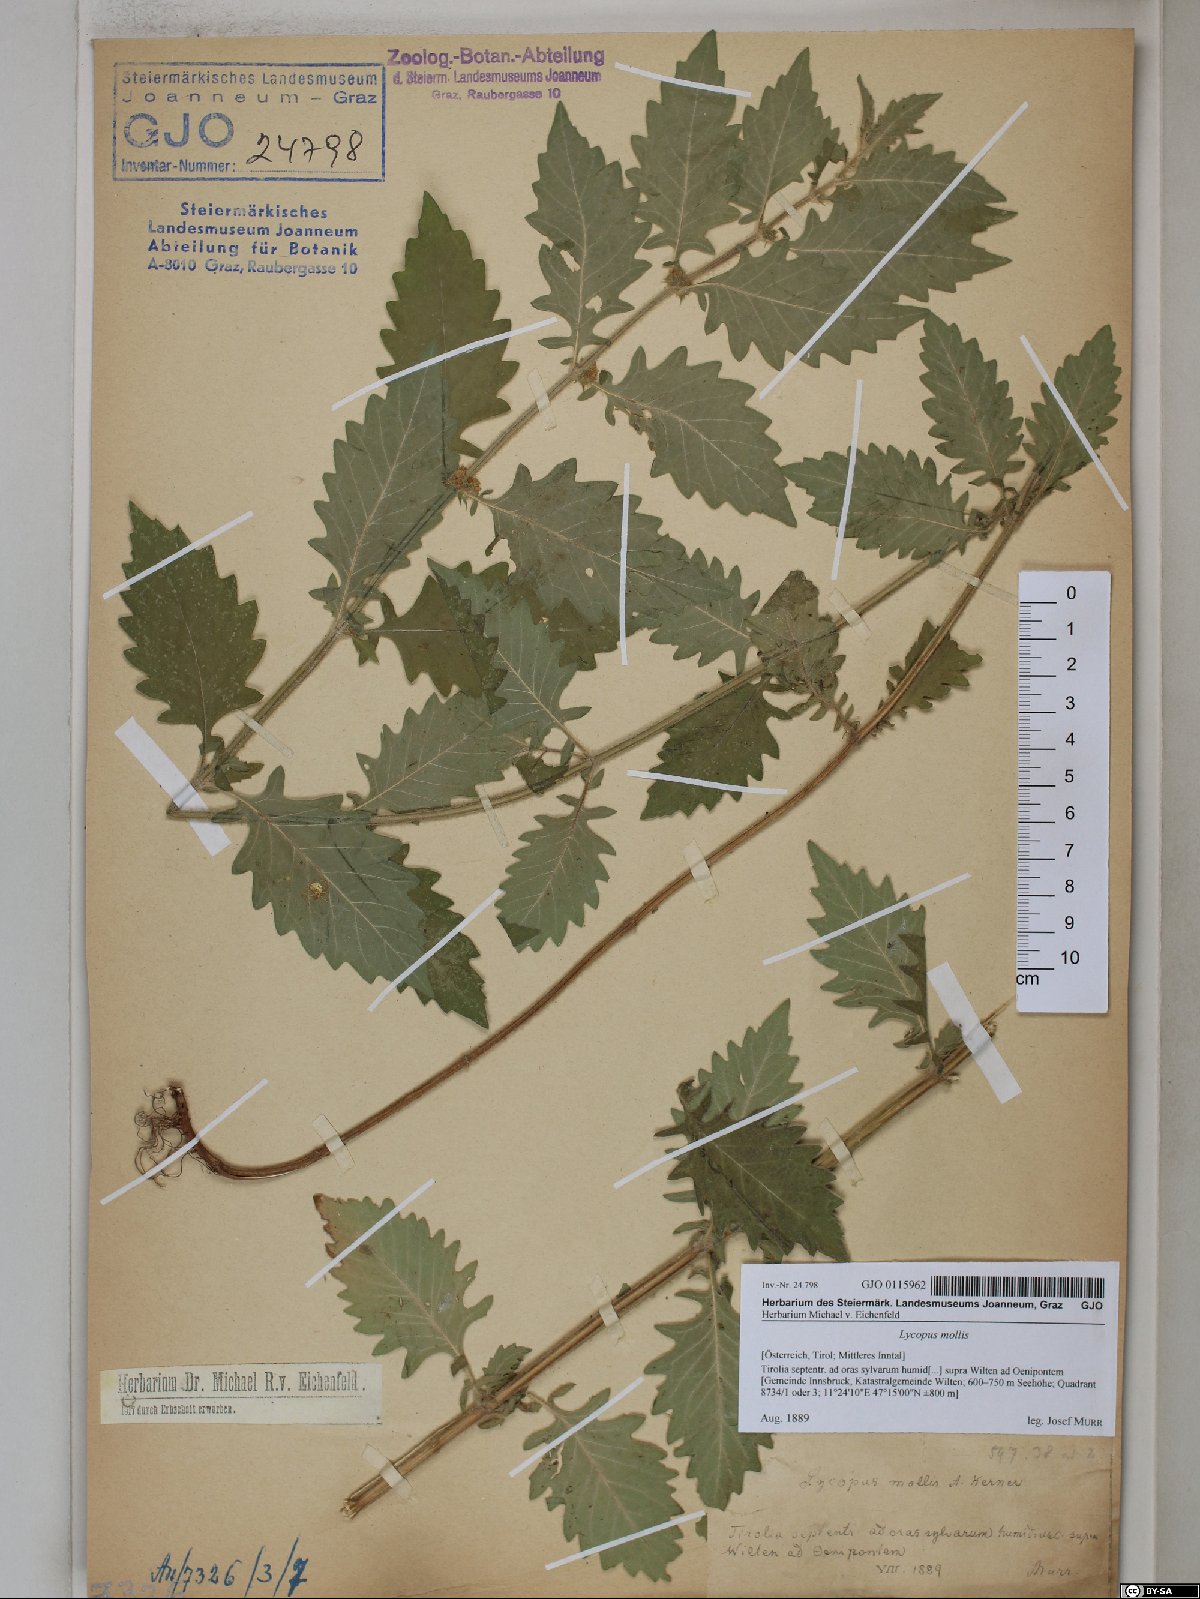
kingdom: Plantae
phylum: Tracheophyta
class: Magnoliopsida
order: Lamiales
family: Lamiaceae
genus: Lycopus
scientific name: Lycopus europaeus
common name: European bugleweed
